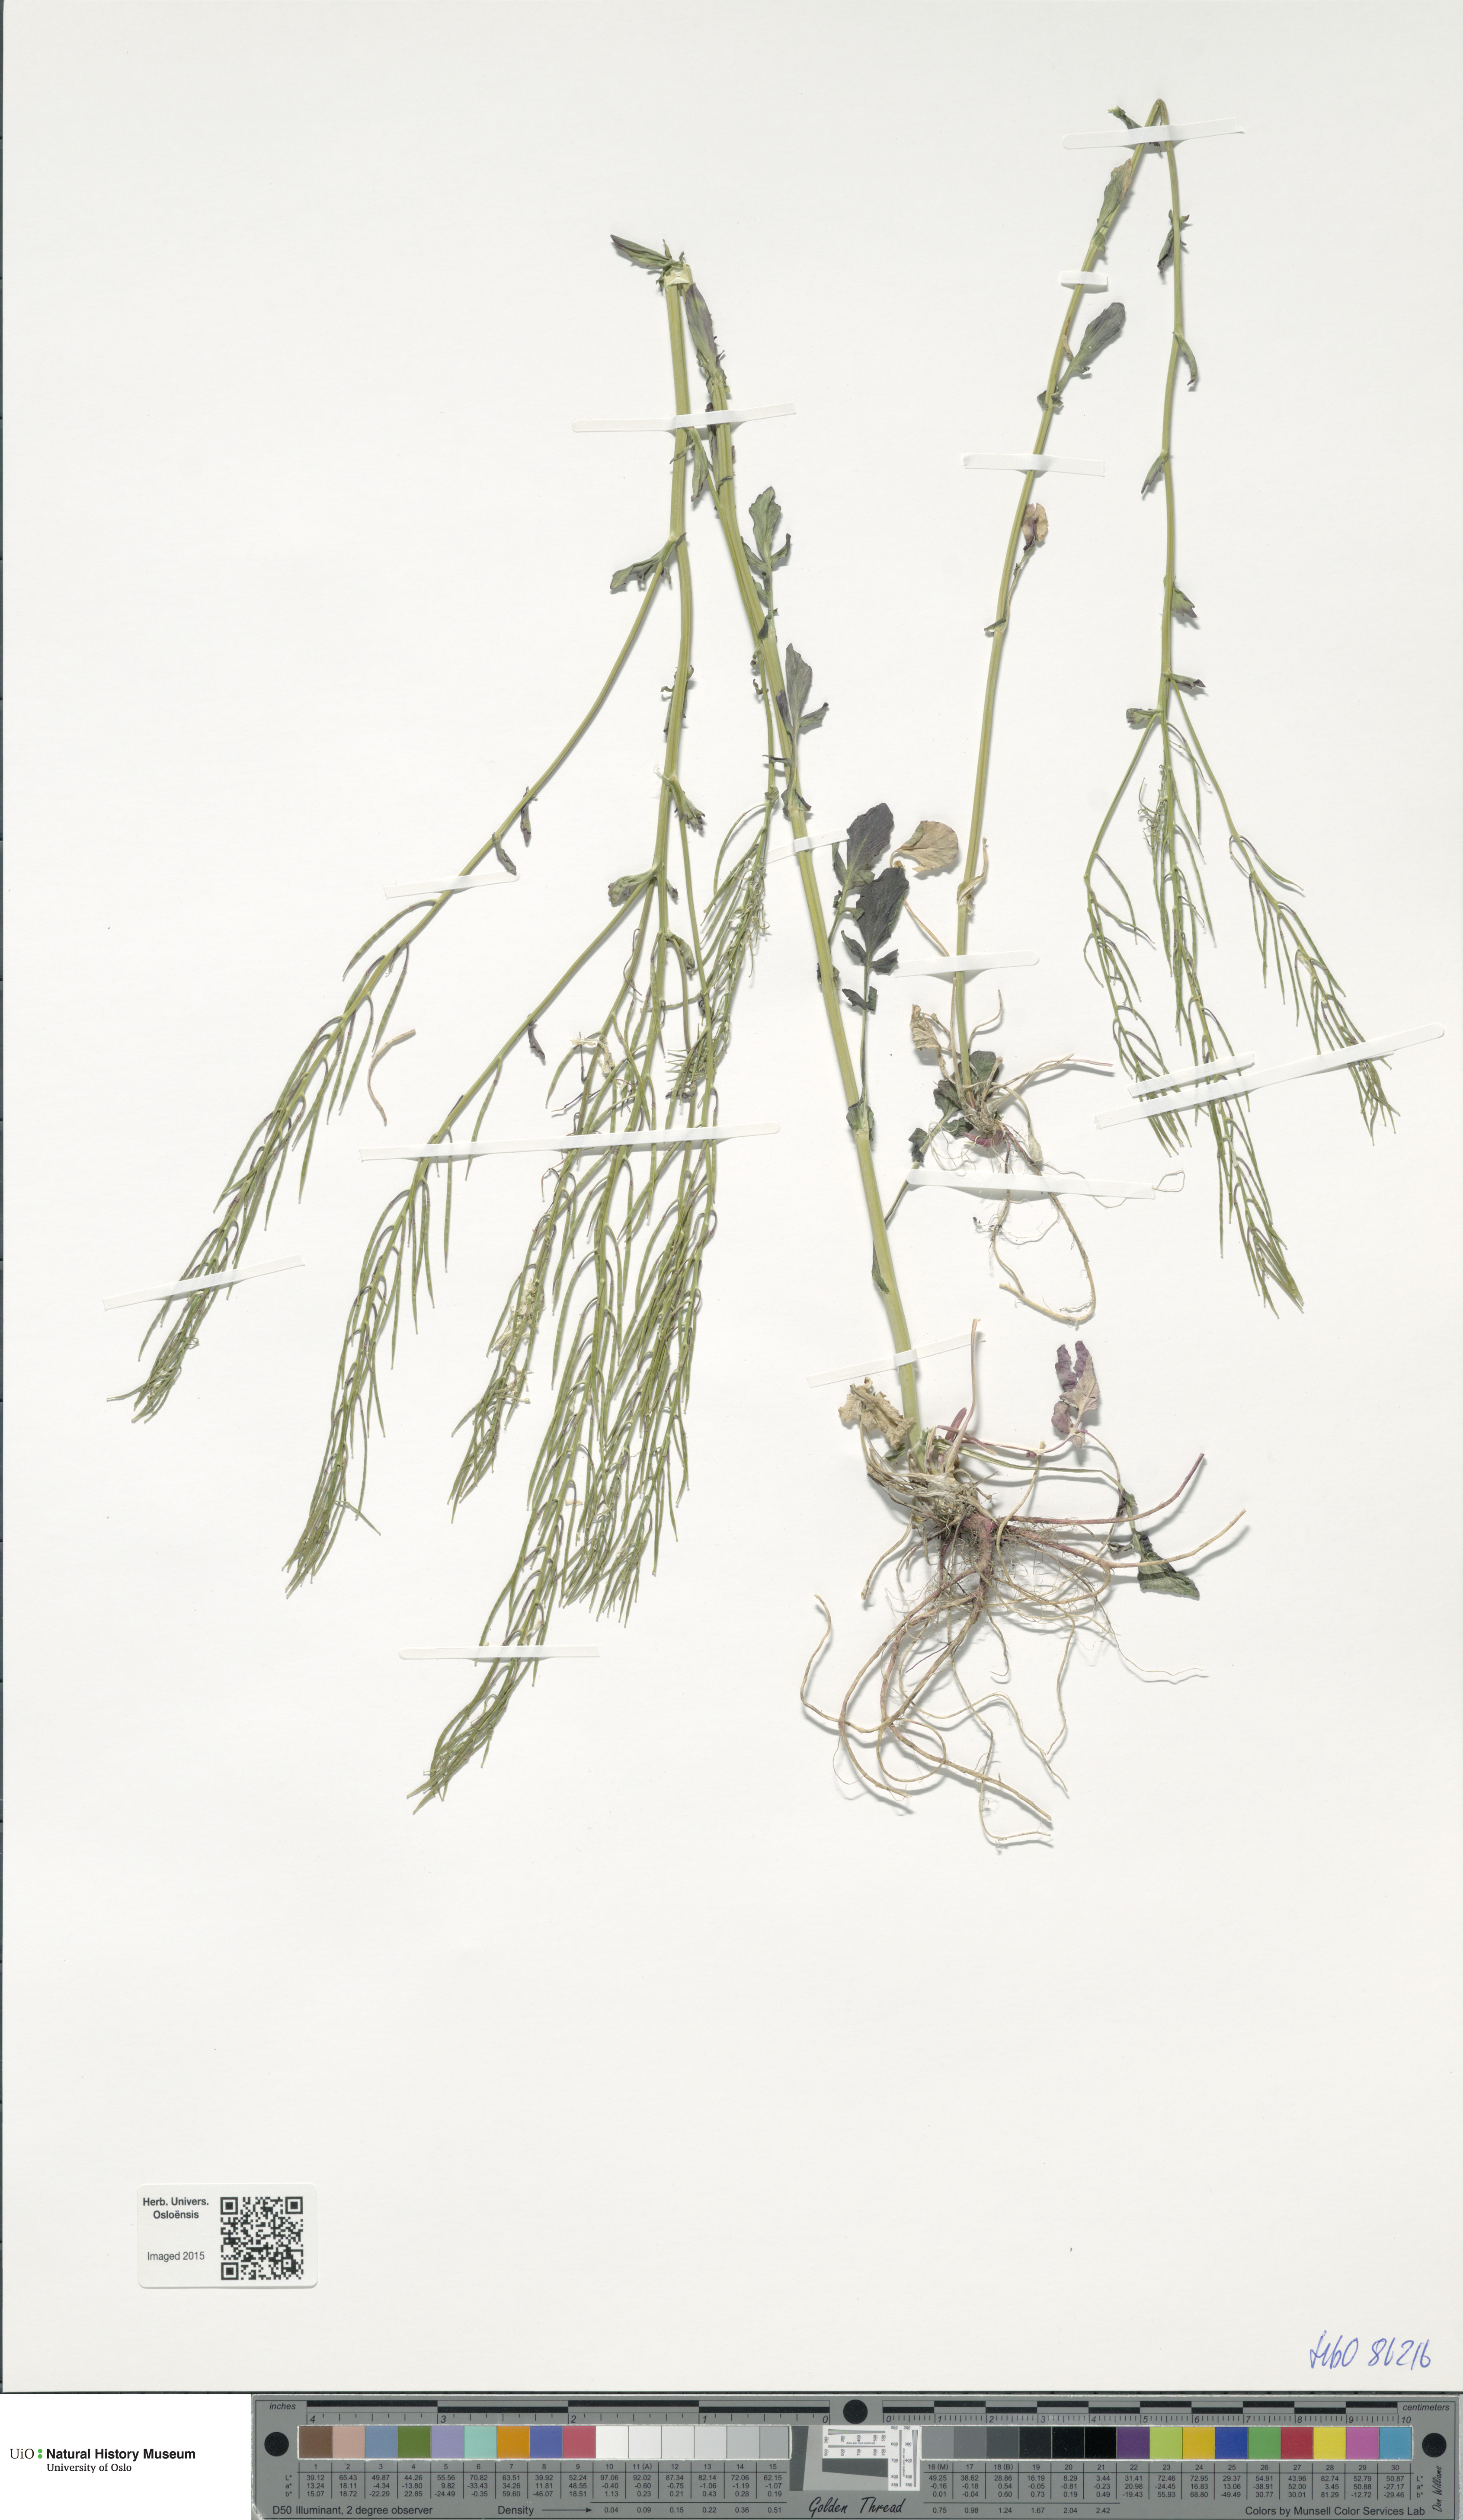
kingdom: Plantae
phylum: Tracheophyta
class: Magnoliopsida
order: Brassicales
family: Brassicaceae
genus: Barbarea
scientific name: Barbarea vulgaris
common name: Cressy-greens
